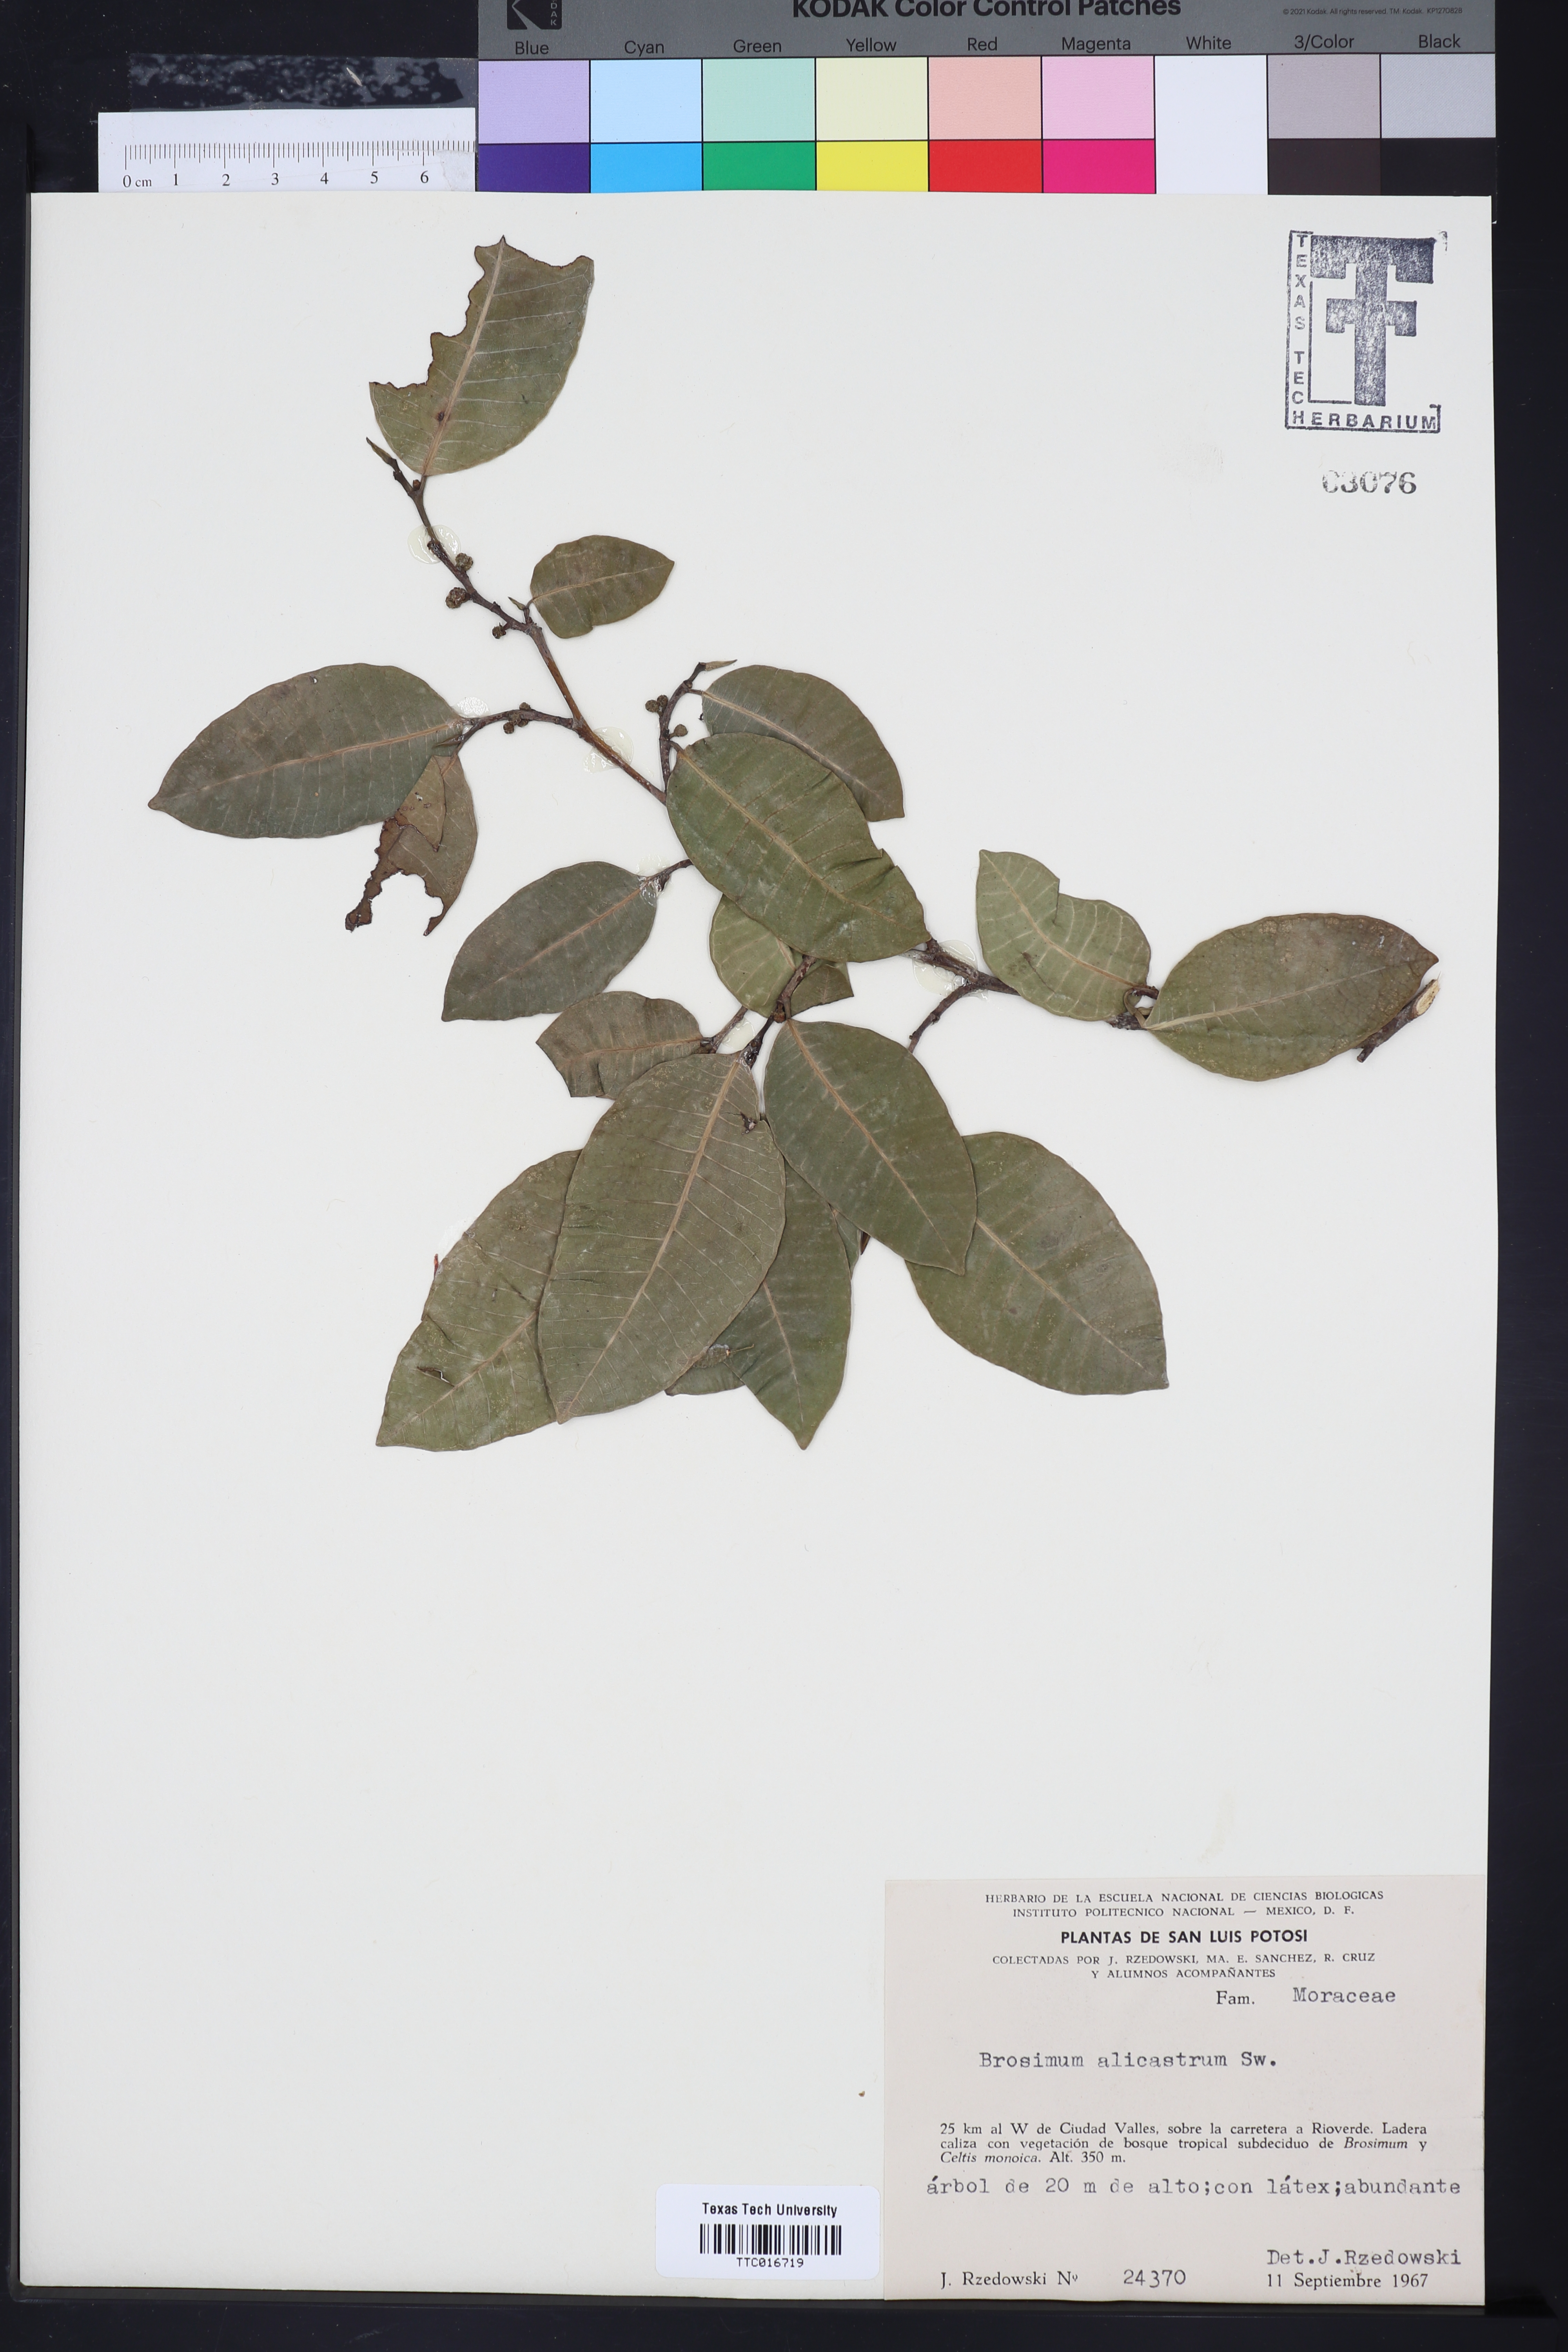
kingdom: Plantae
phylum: Tracheophyta
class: Magnoliopsida
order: Rosales
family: Moraceae
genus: Brosimum
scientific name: Brosimum alicastrum
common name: Breadnut
